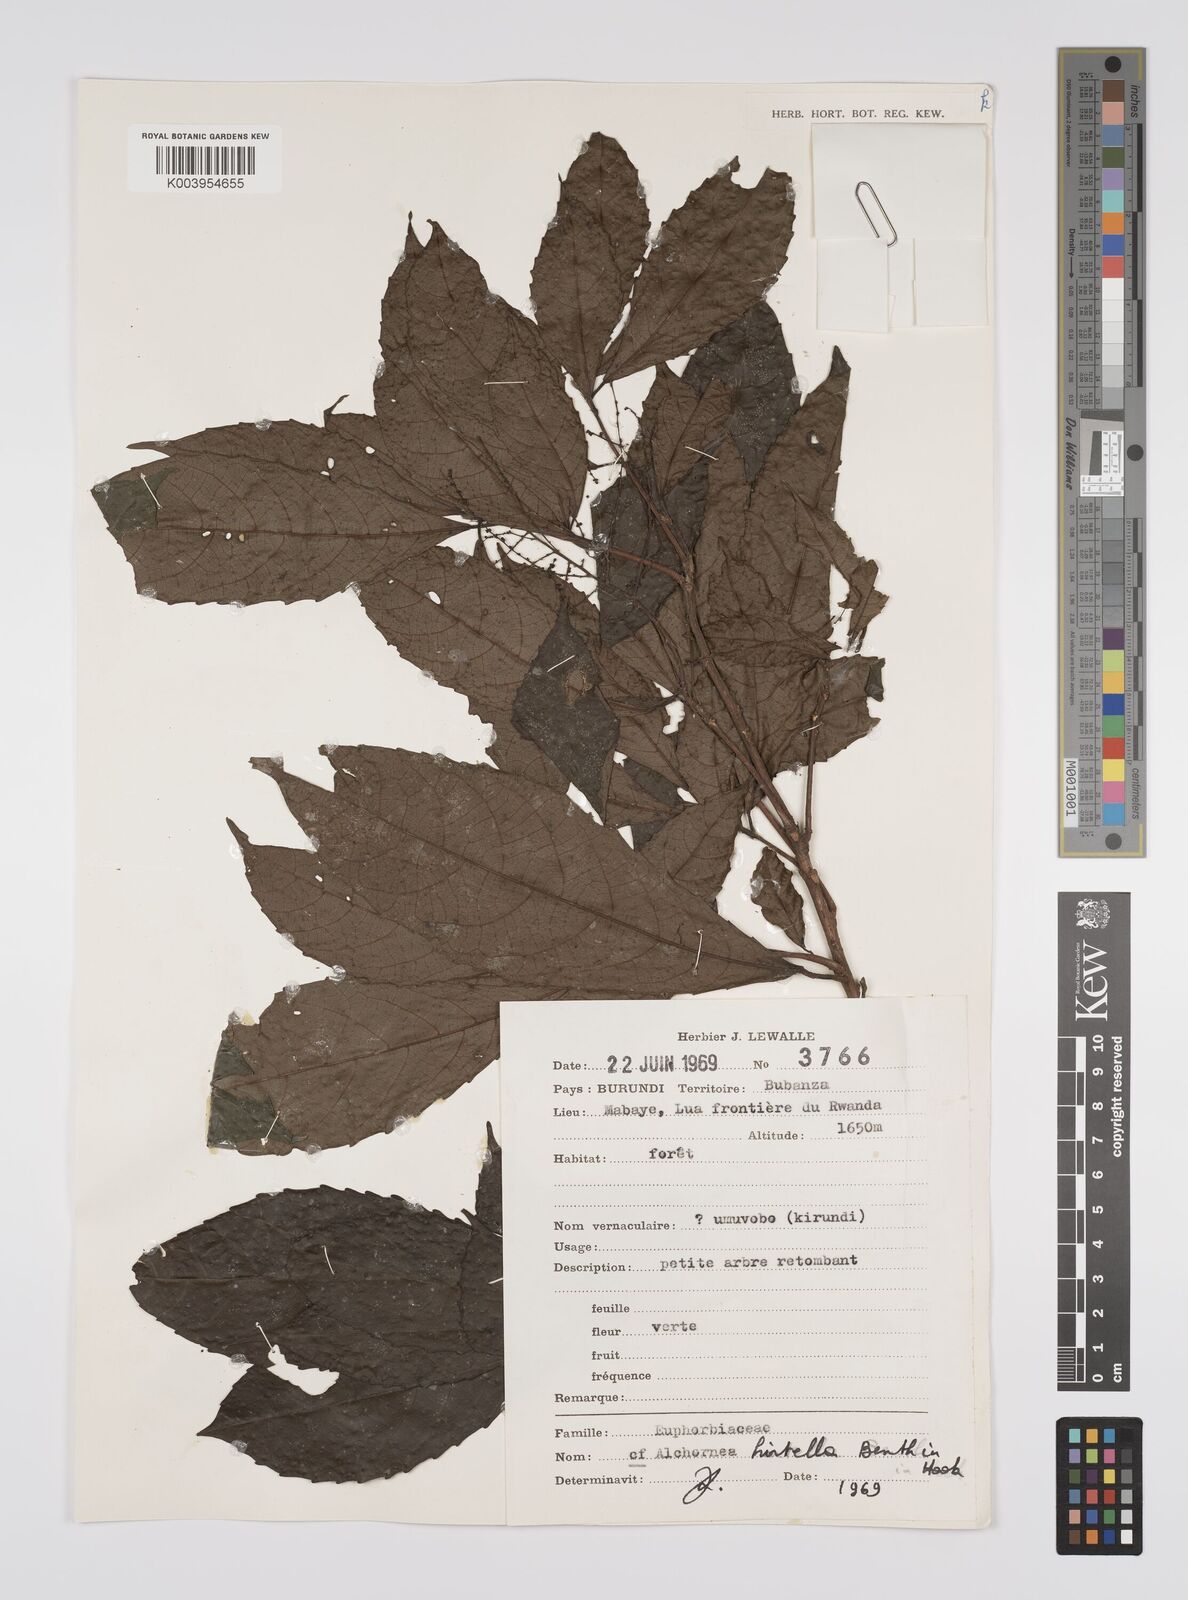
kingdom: Plantae
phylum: Tracheophyta
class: Magnoliopsida
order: Malpighiales
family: Euphorbiaceae
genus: Alchornea
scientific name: Alchornea hirtella
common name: Forest bead-string
